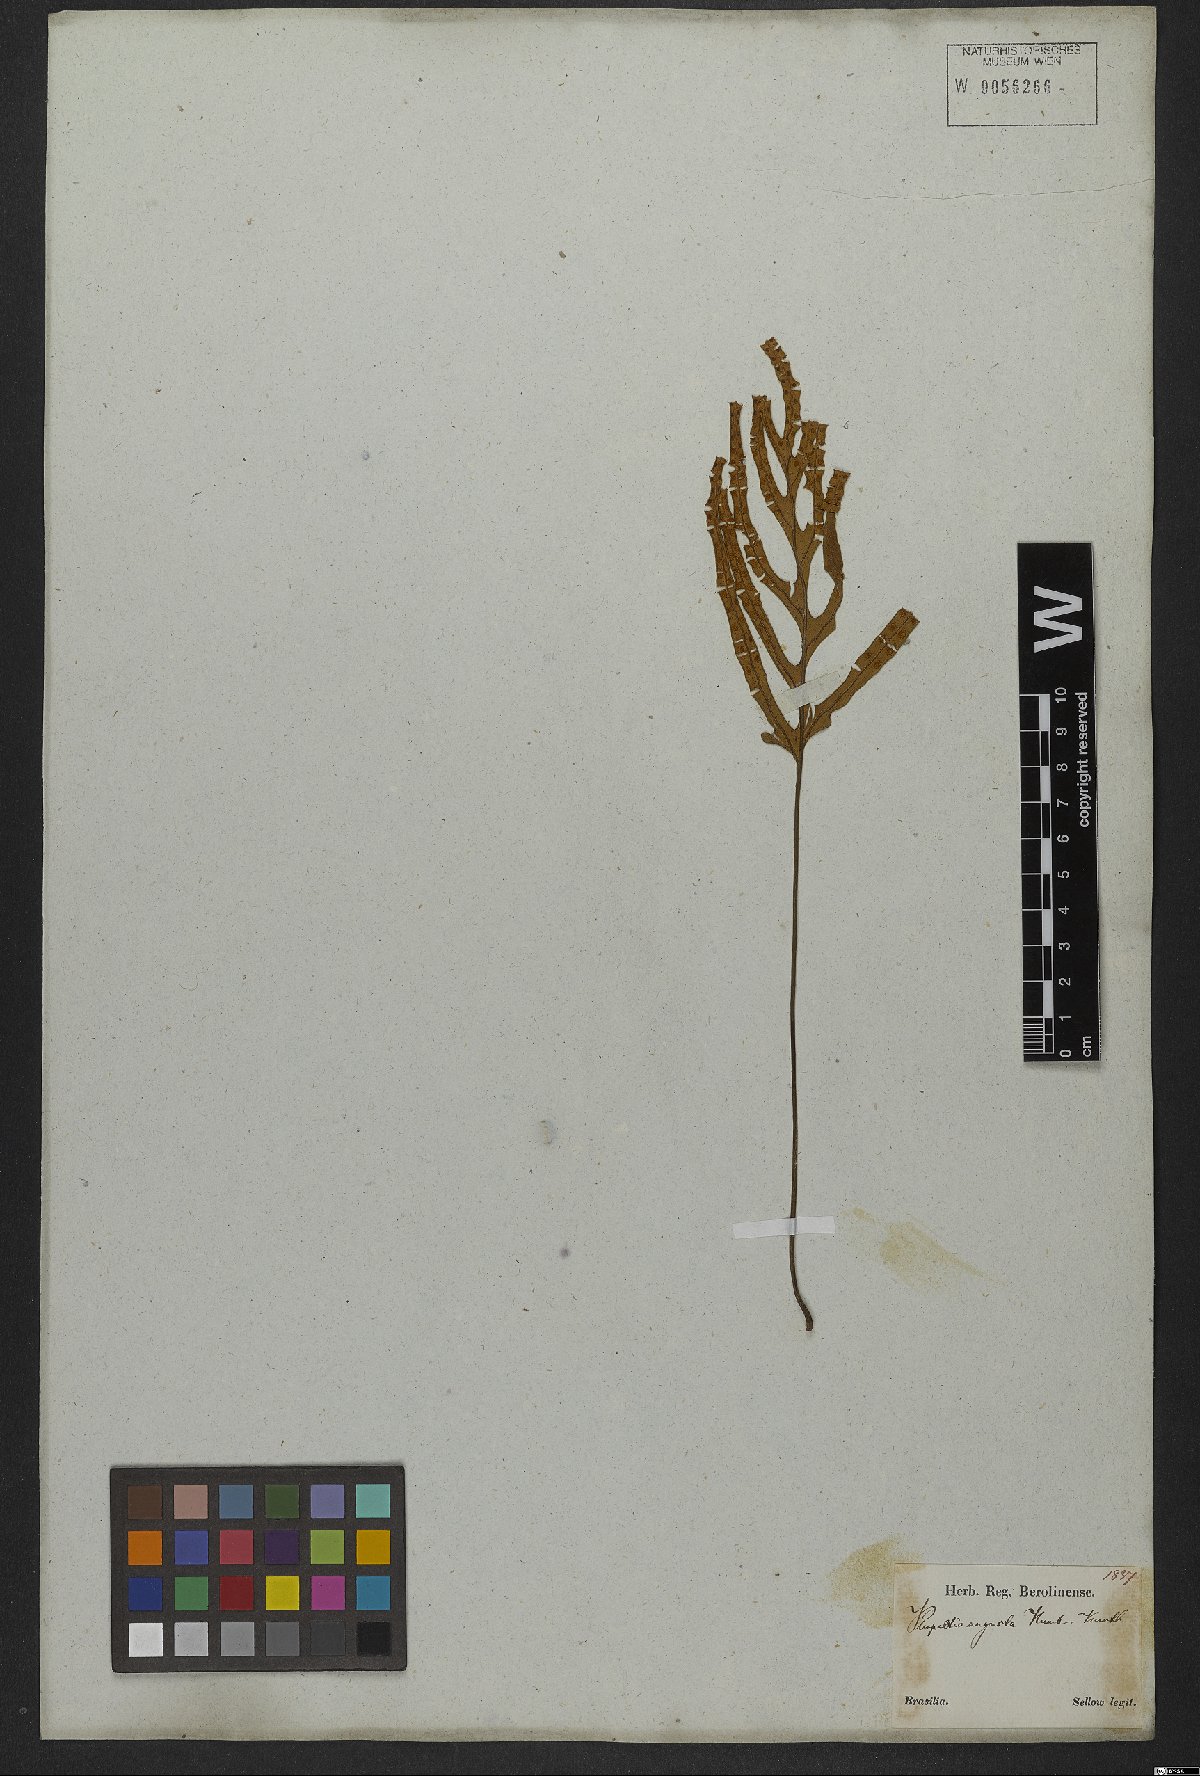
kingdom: Plantae
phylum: Tracheophyta
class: Polypodiopsida
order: Polypodiales
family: Polypodiaceae
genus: Pleopeltis
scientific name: Pleopeltis angusta
